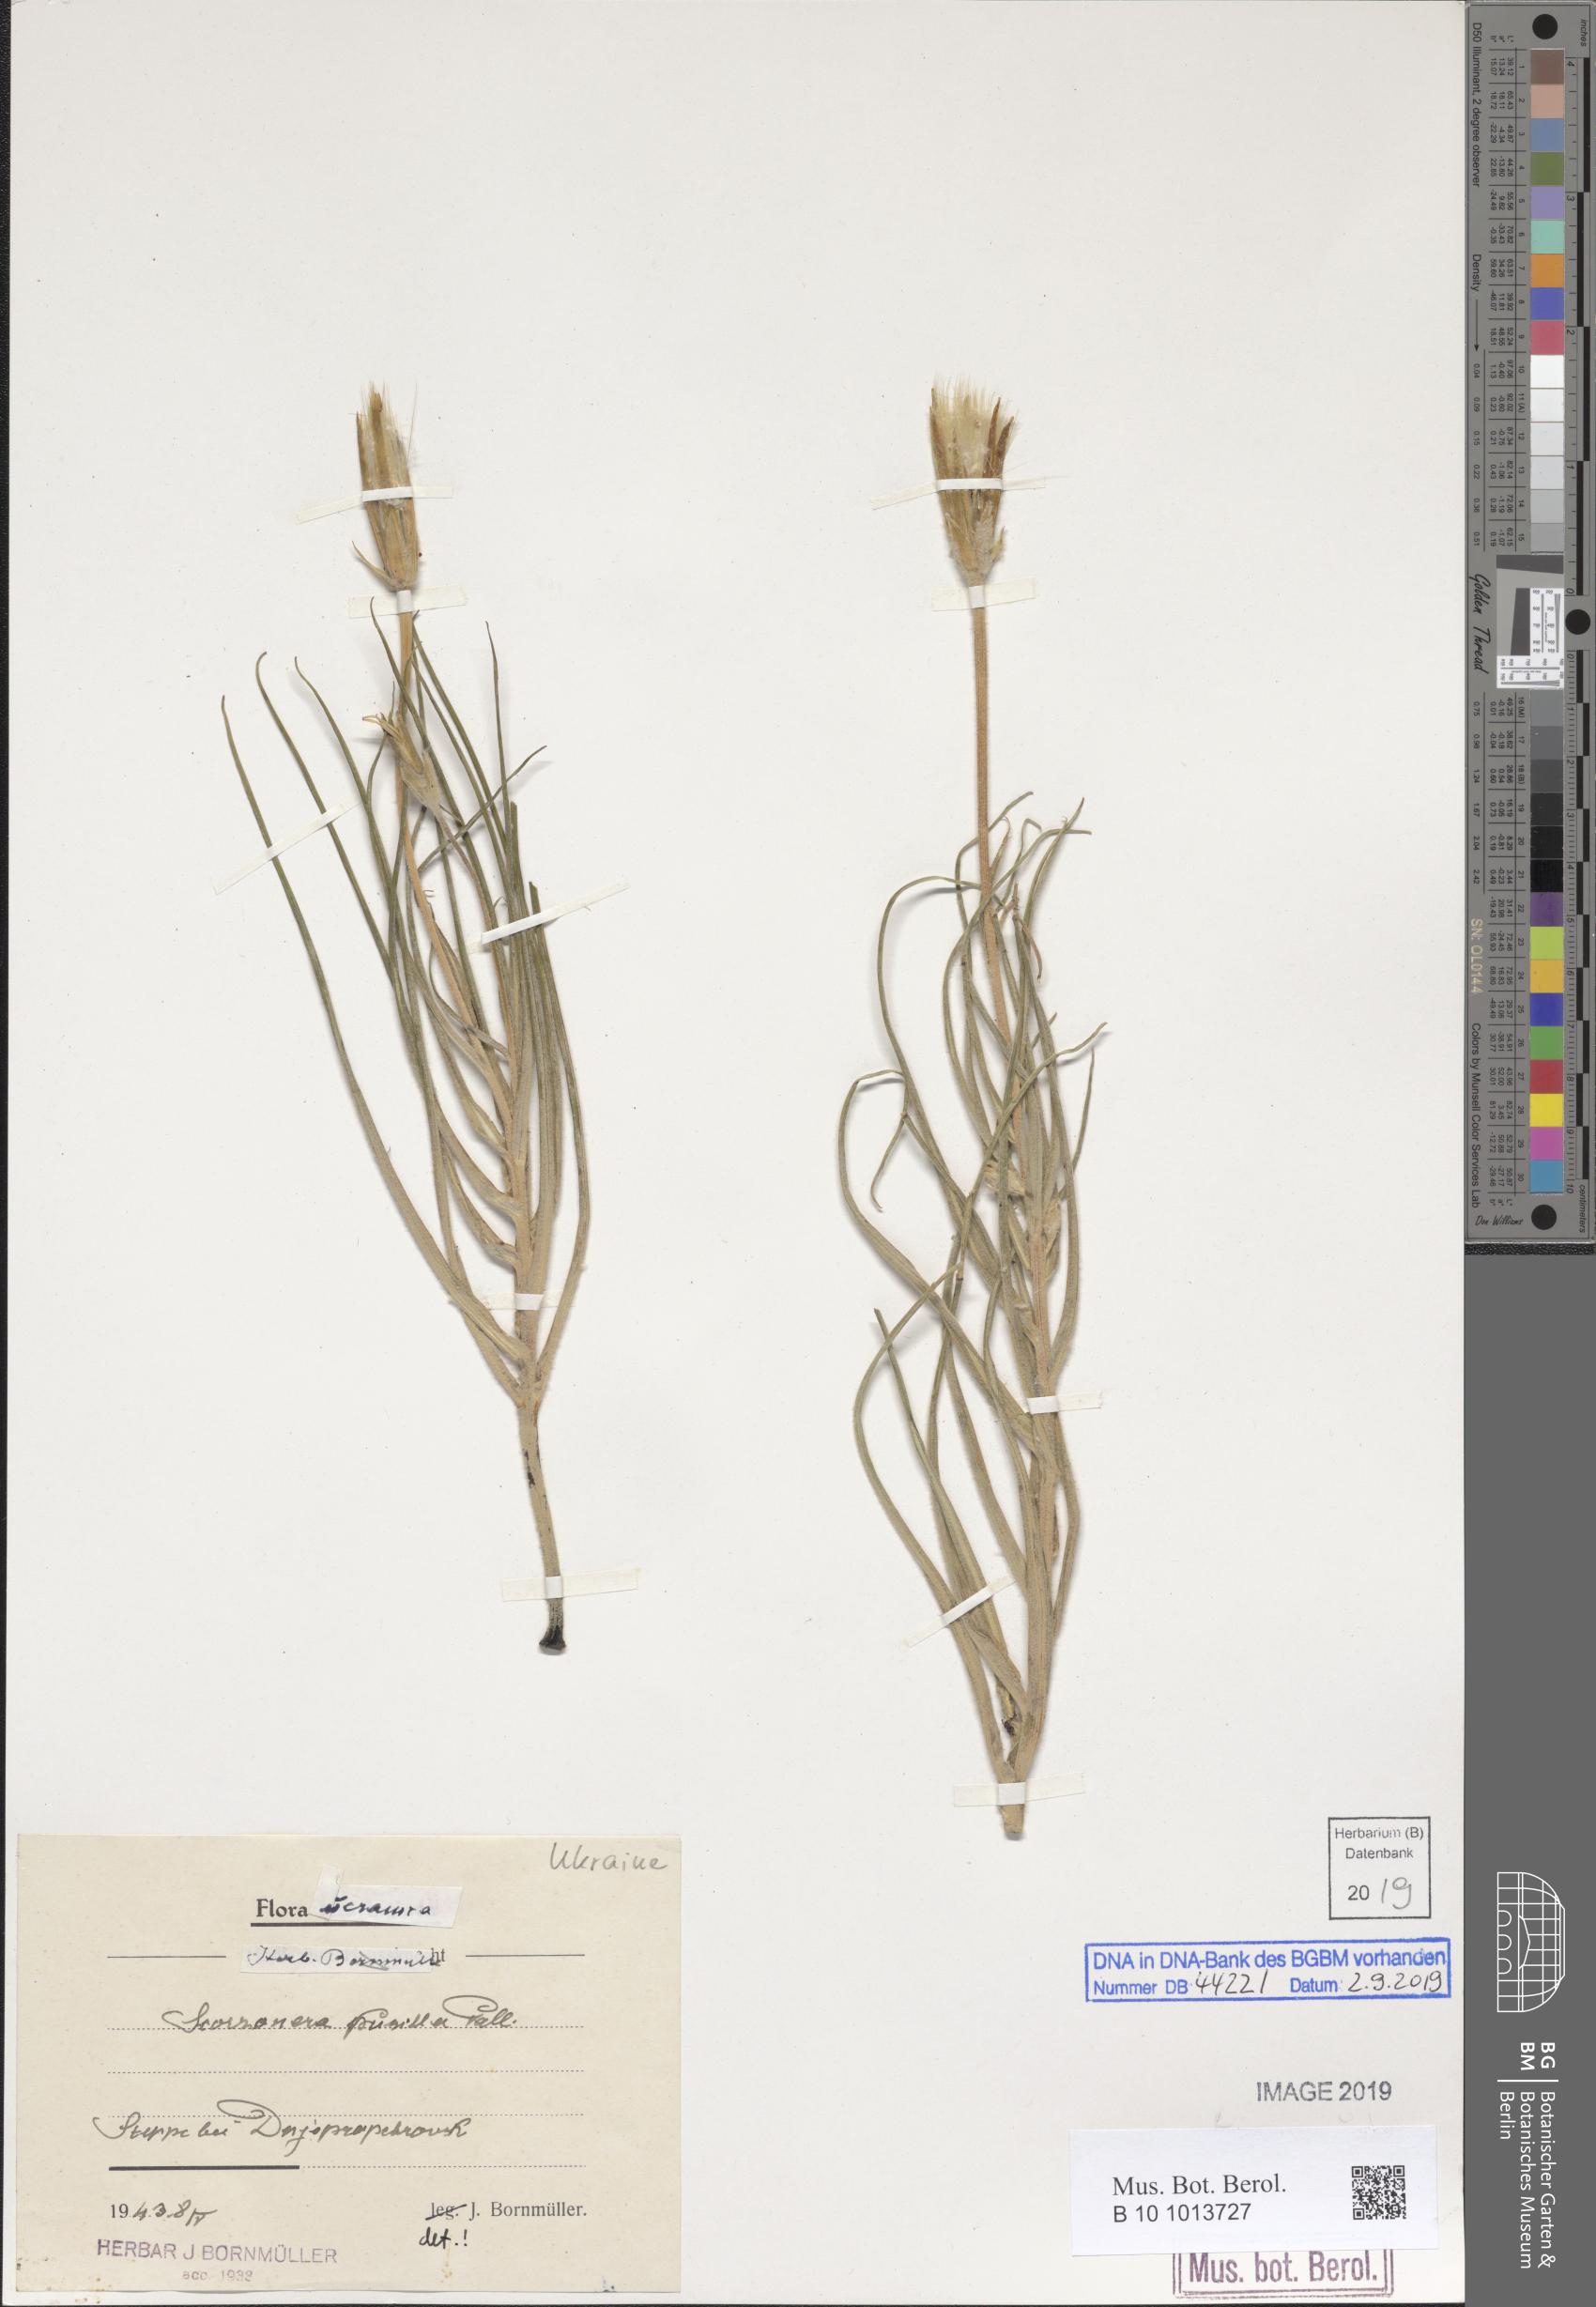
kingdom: Plantae
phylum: Tracheophyta
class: Magnoliopsida
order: Asterales
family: Asteraceae
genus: Takhtajaniantha
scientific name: Takhtajaniantha pusilla
